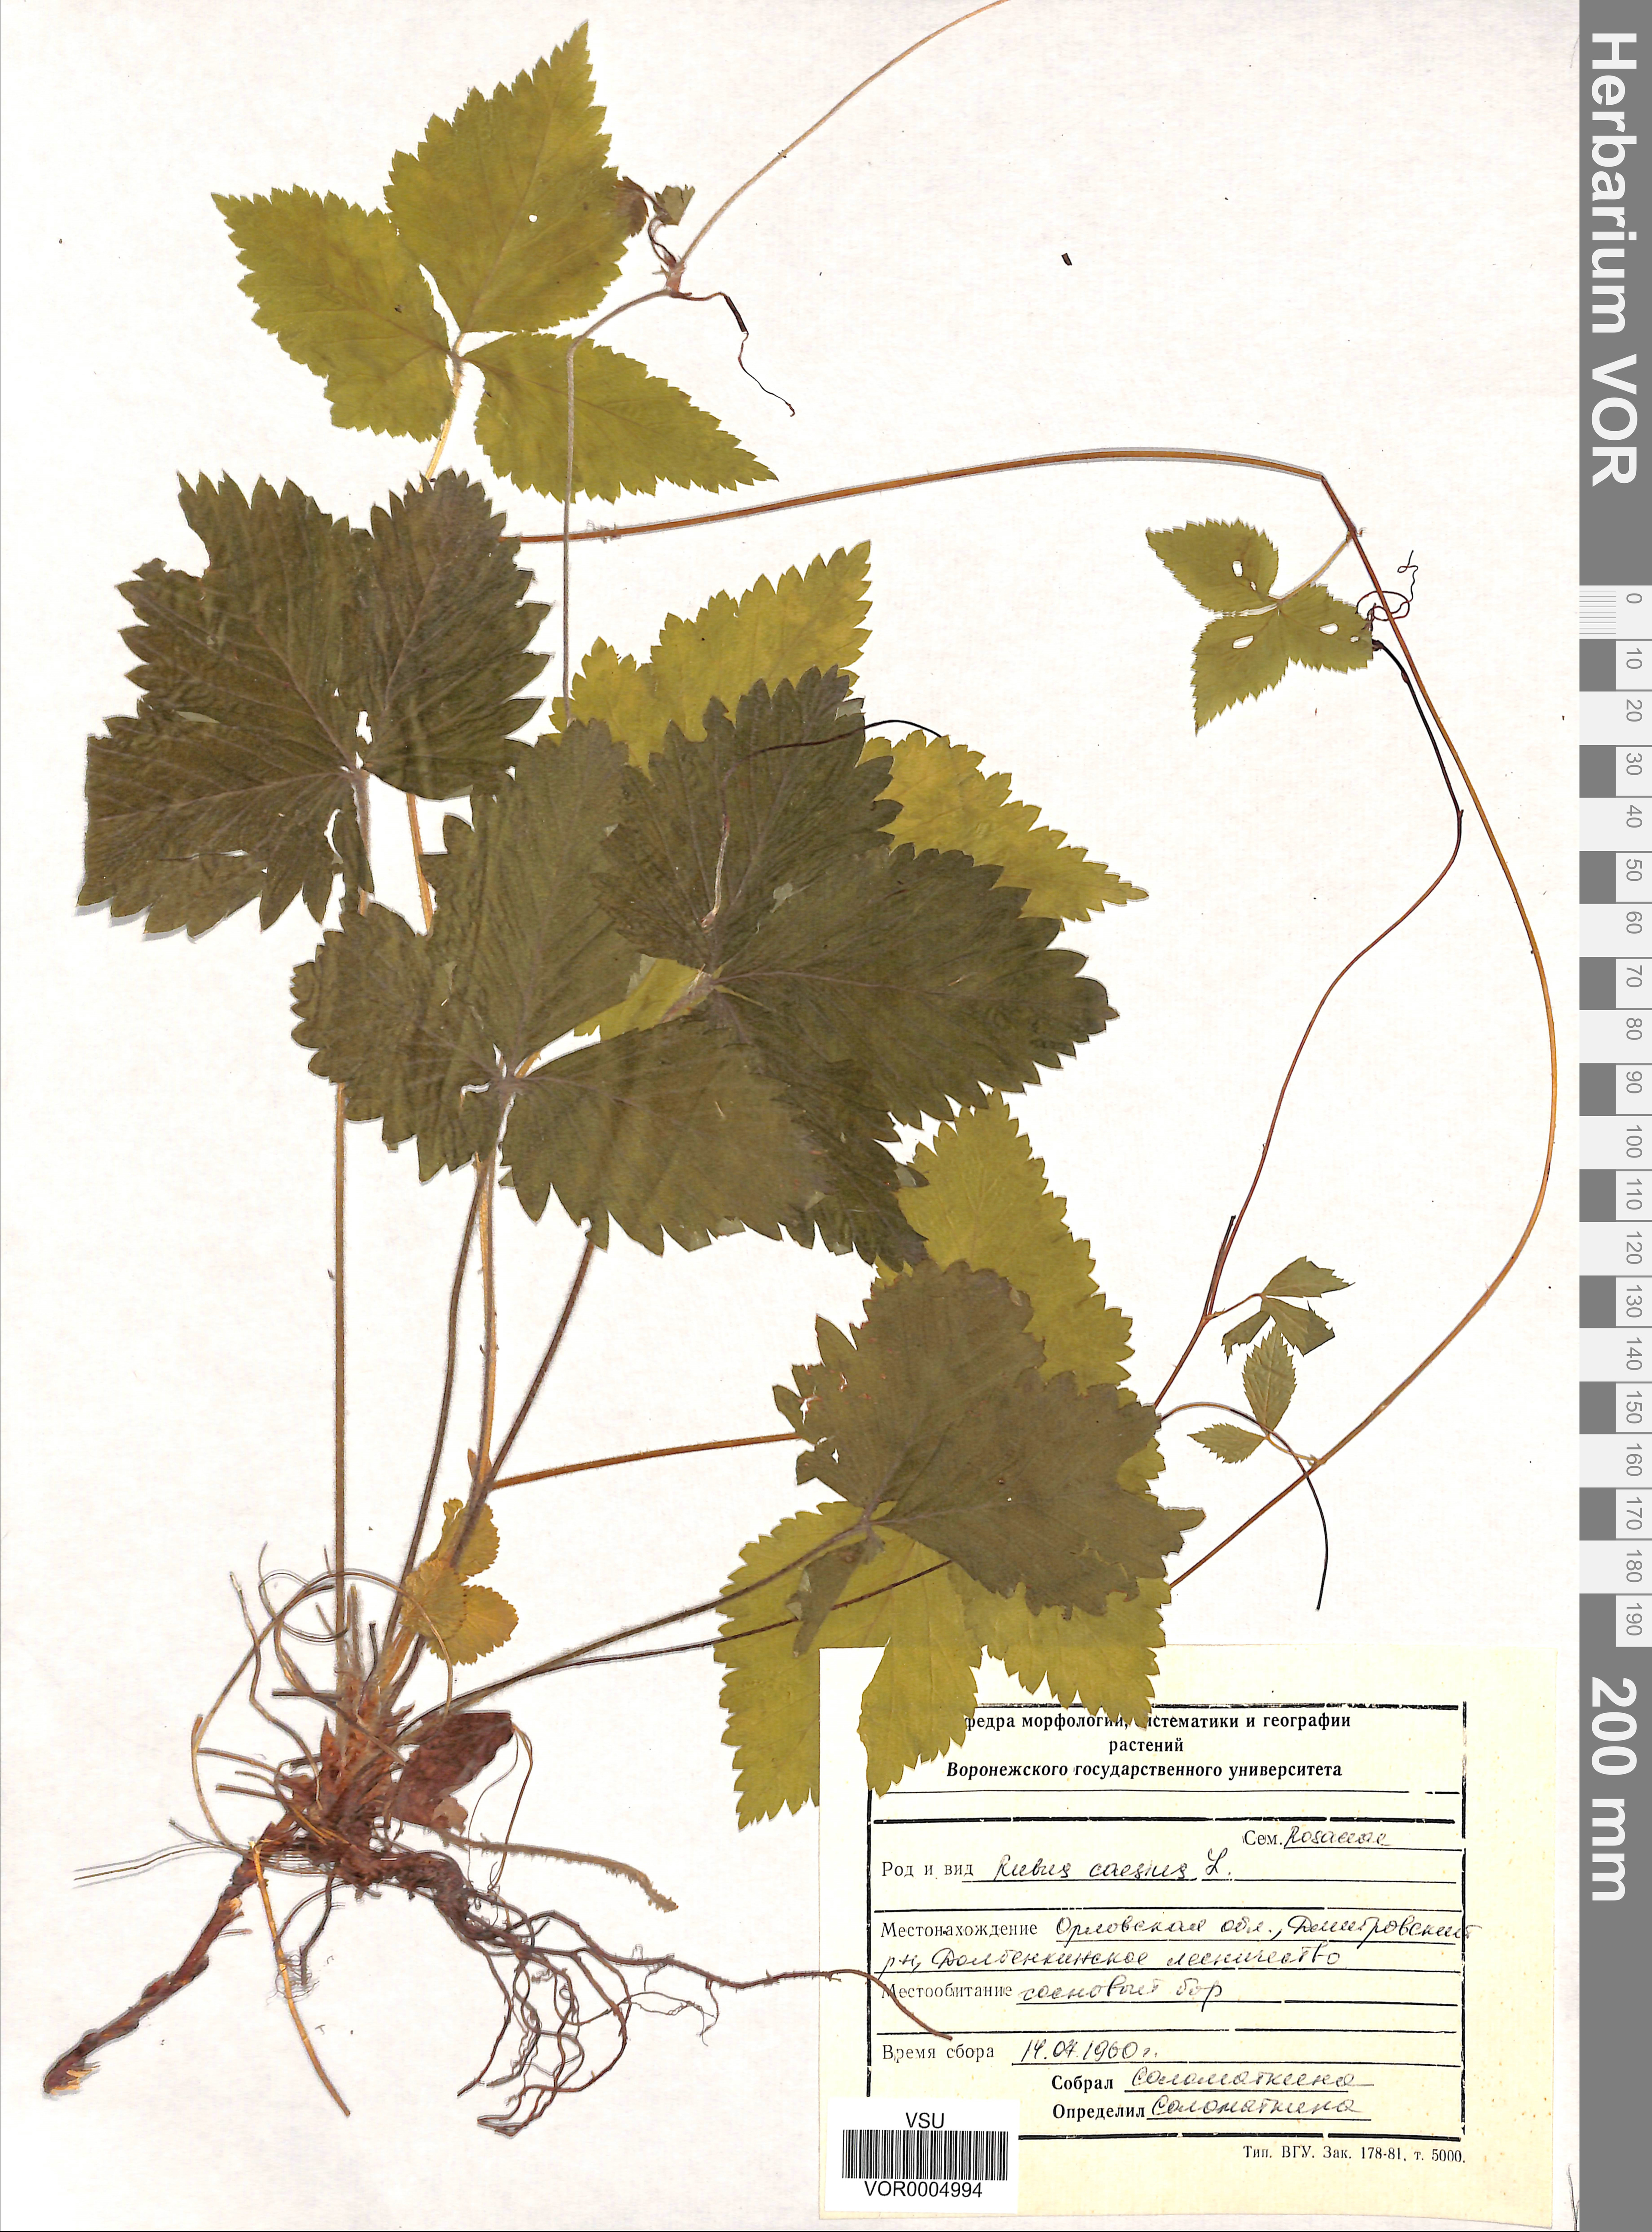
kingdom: Plantae
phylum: Tracheophyta
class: Magnoliopsida
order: Rosales
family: Rosaceae
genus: Rubus
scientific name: Rubus caesius
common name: Dewberry
